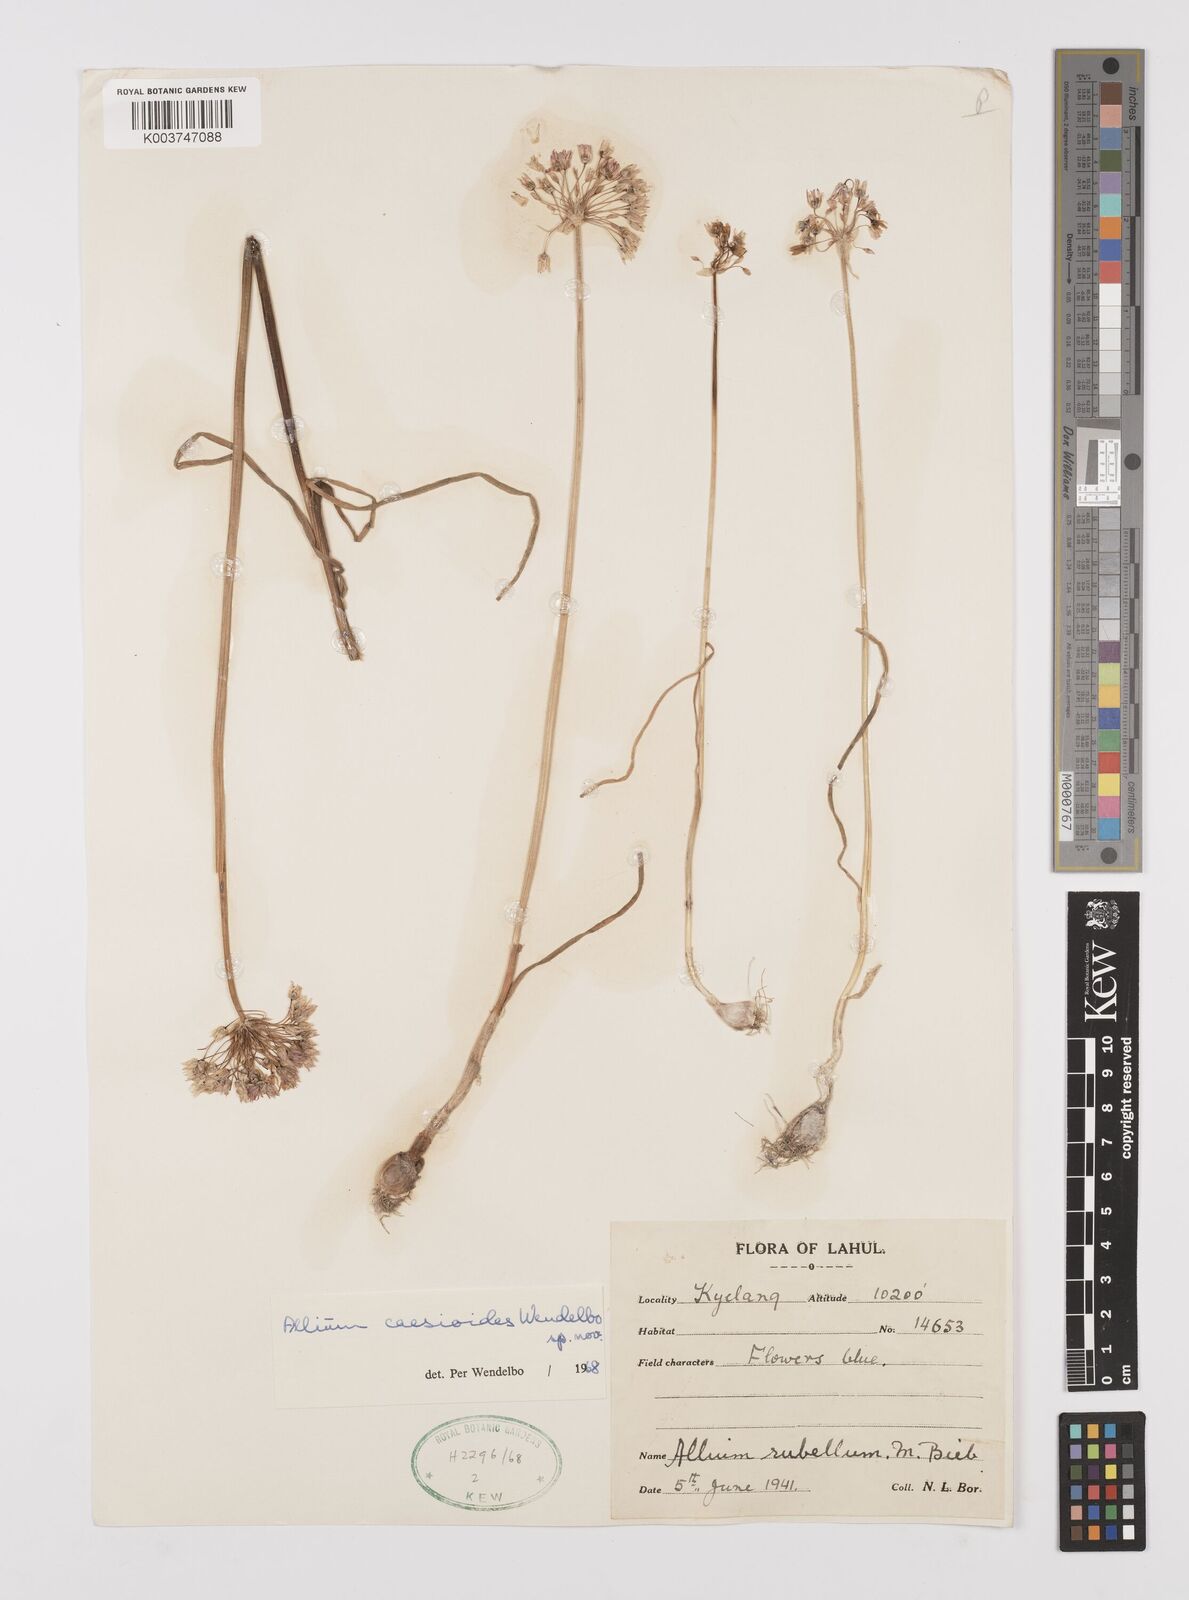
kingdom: Plantae
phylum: Tracheophyta
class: Liliopsida
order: Asparagales
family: Amaryllidaceae
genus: Allium
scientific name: Allium caesioides
